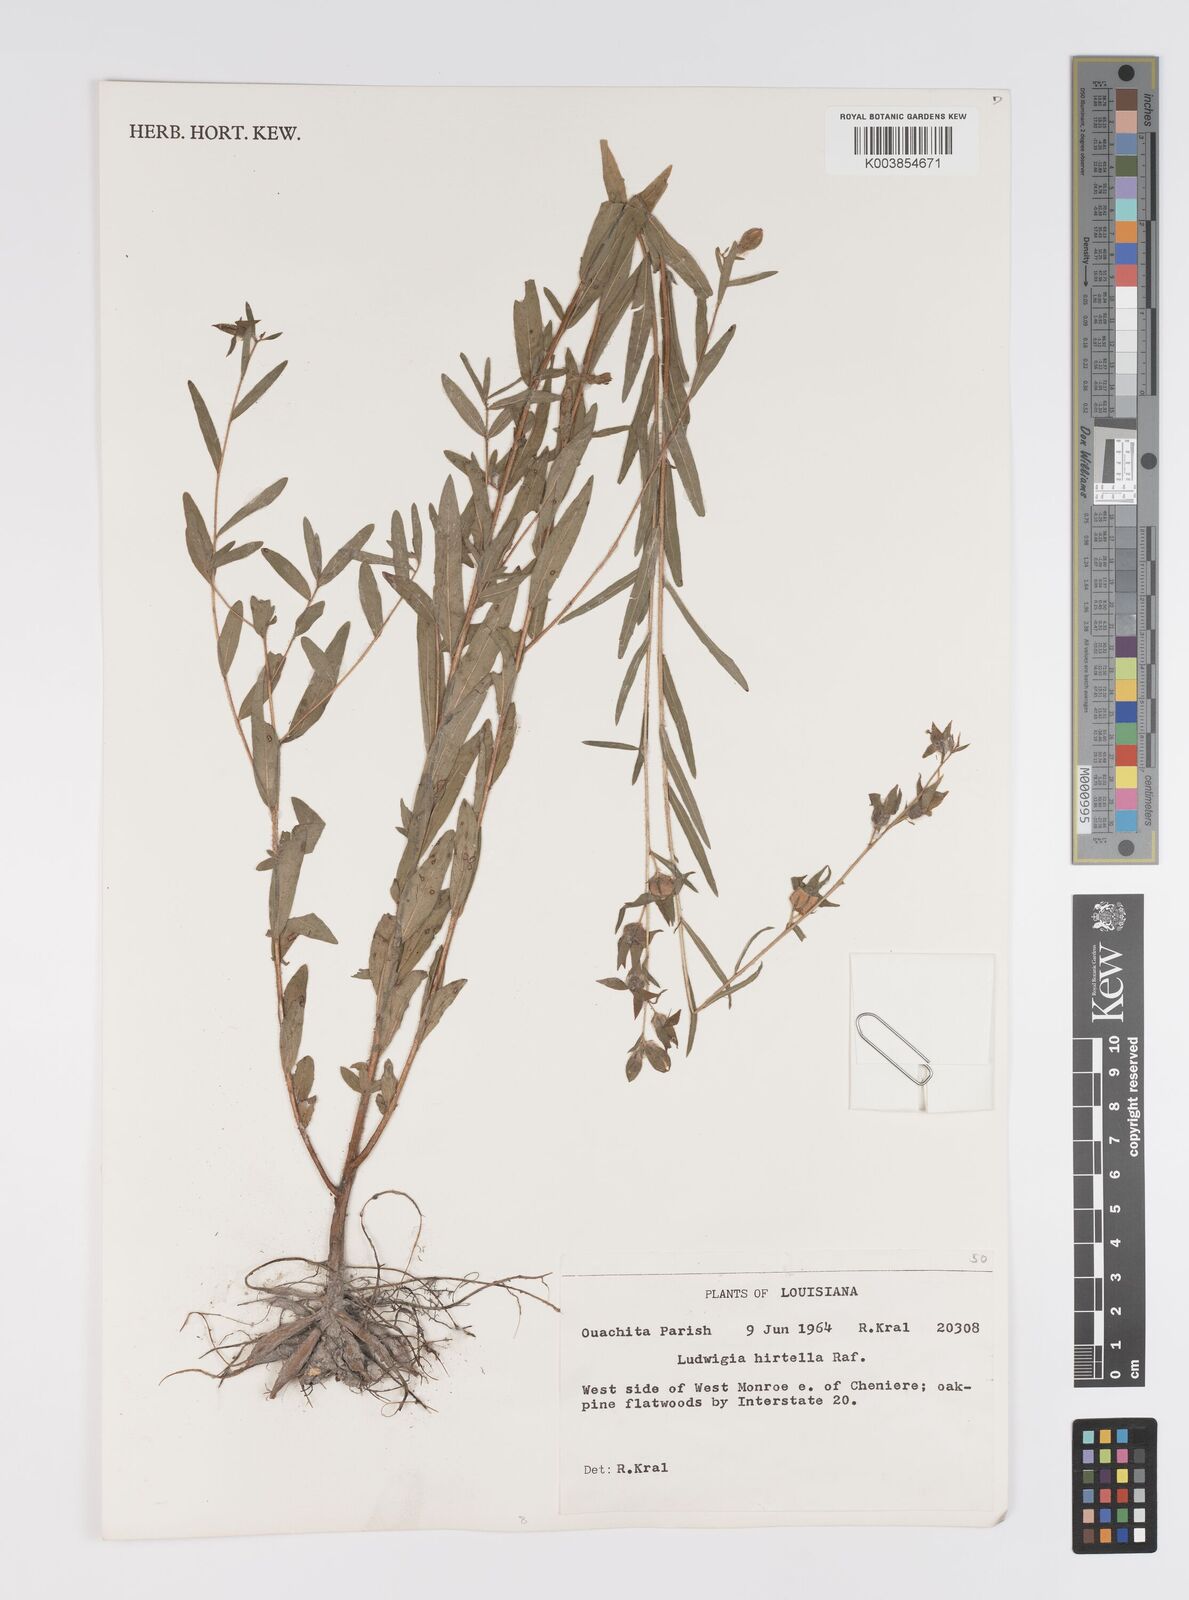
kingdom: Plantae
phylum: Tracheophyta
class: Magnoliopsida
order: Myrtales
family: Onagraceae
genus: Ludwigia
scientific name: Ludwigia hirtella
